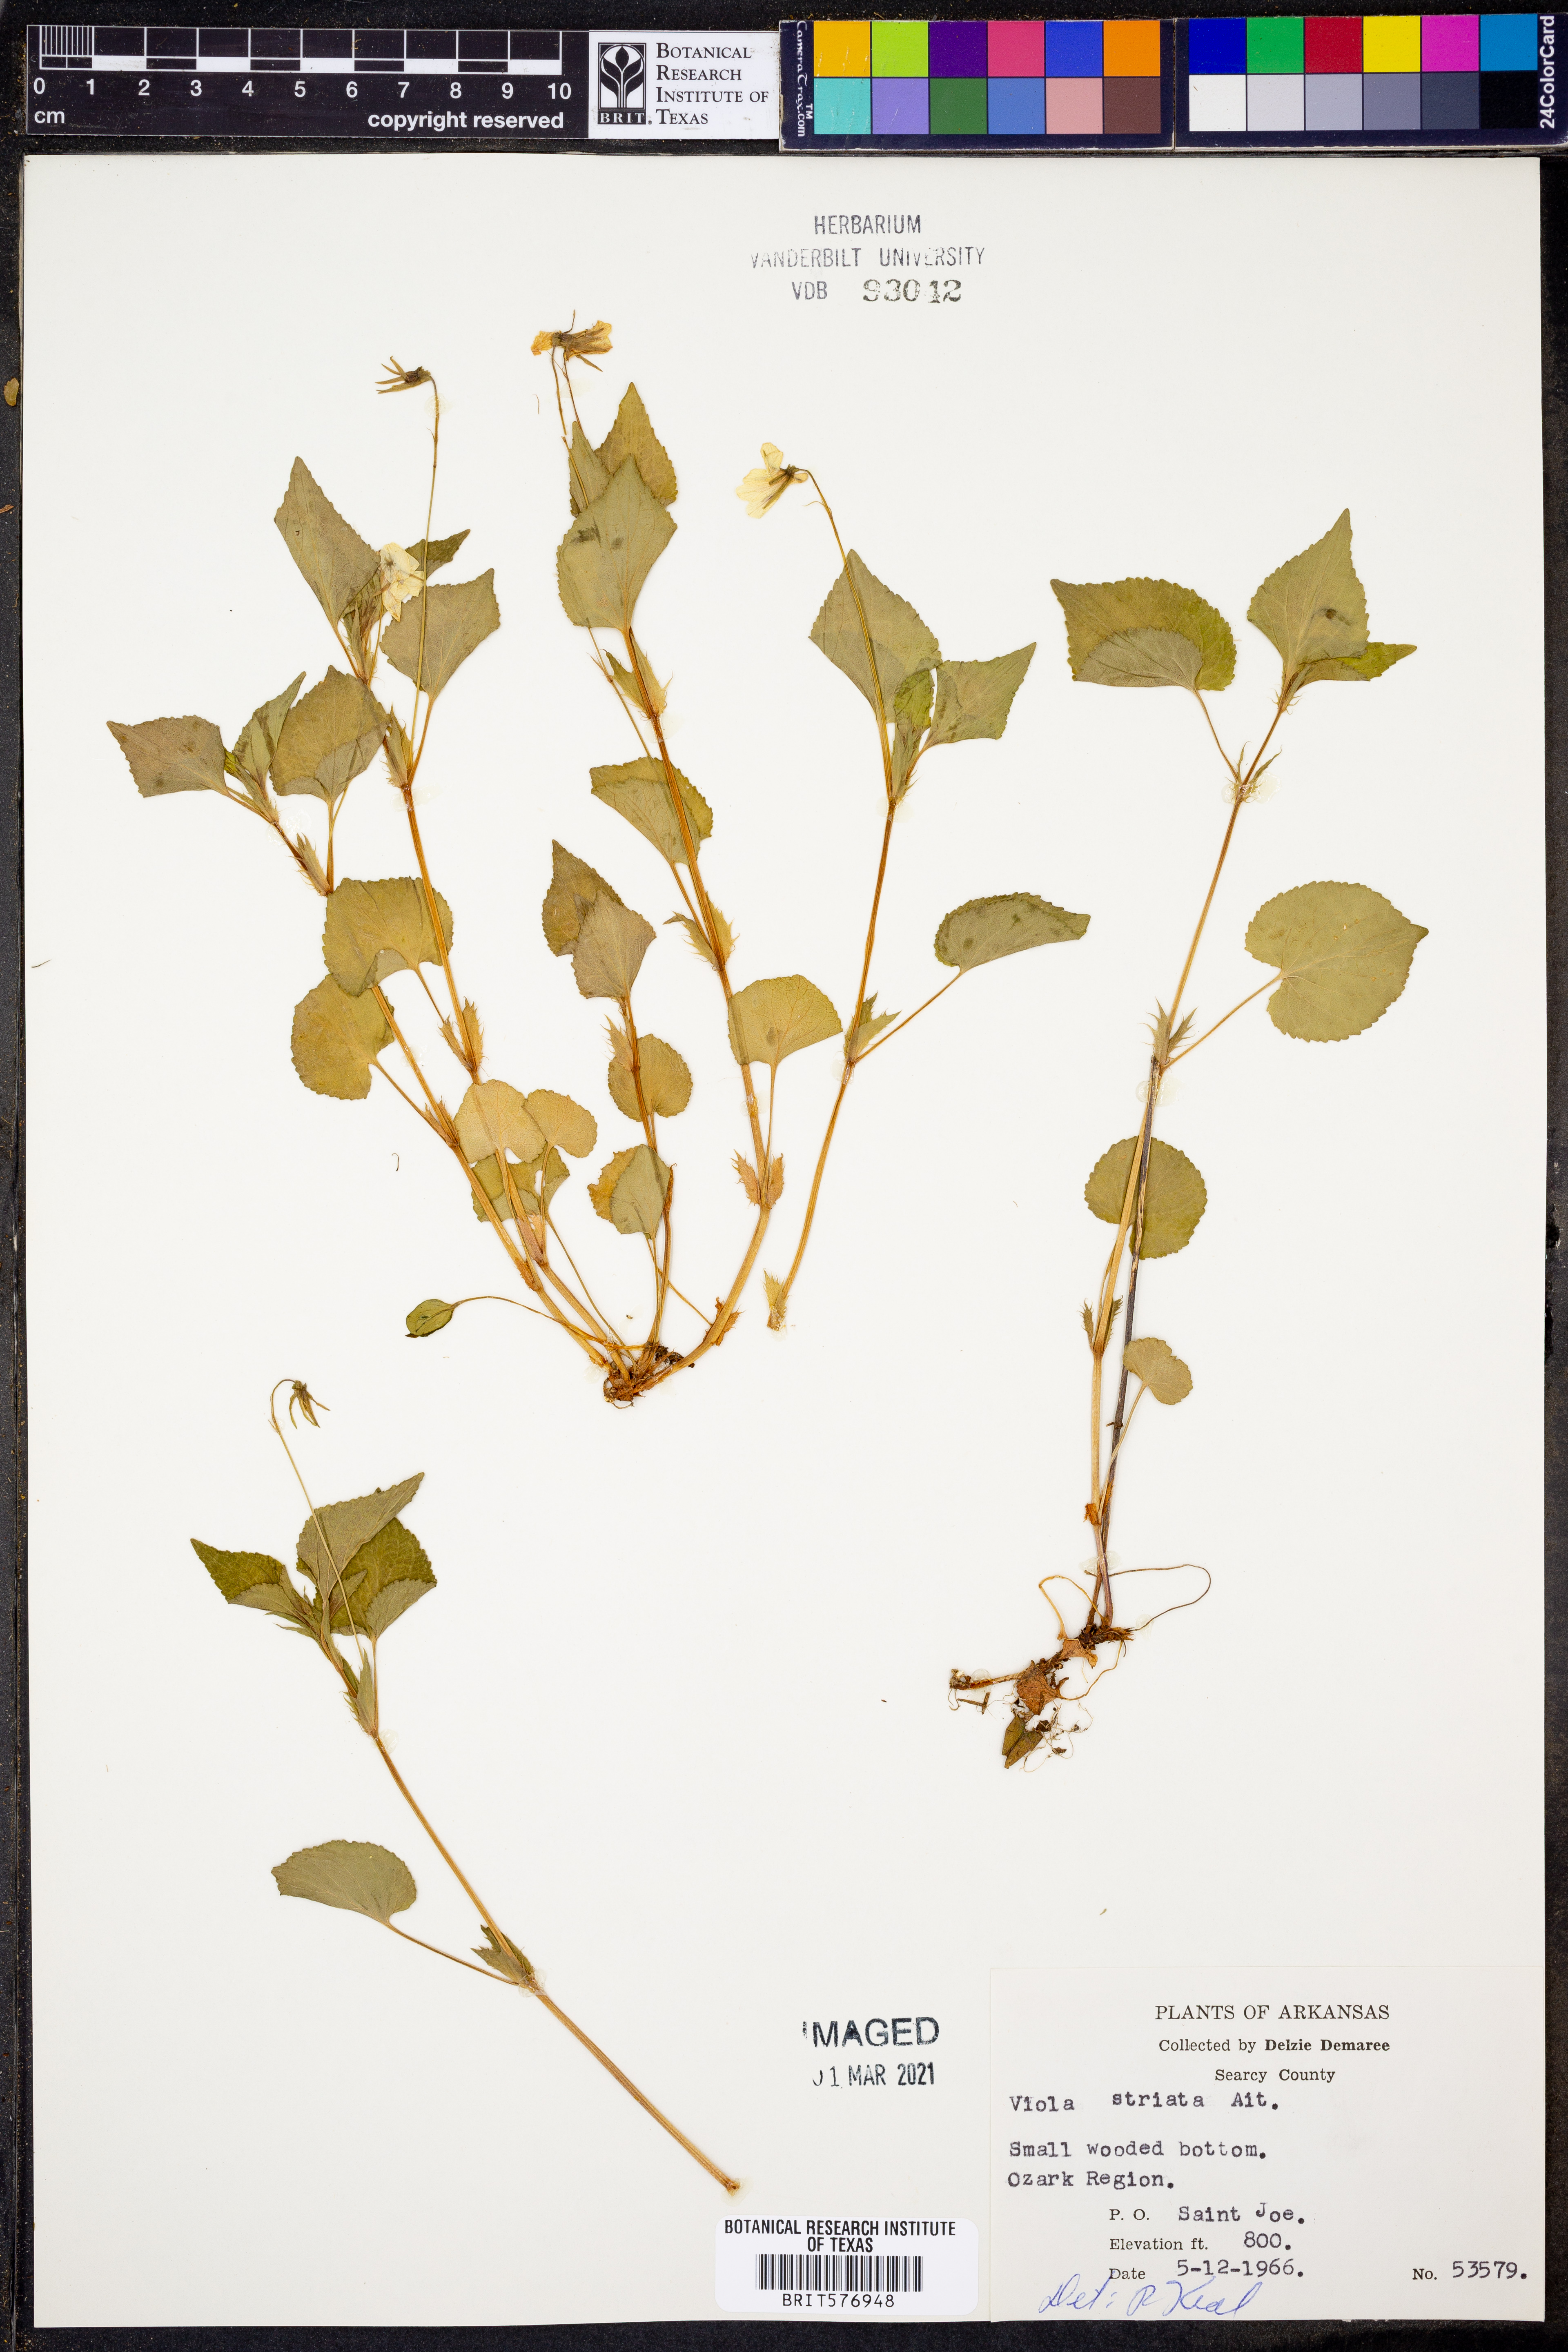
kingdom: Plantae
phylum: Tracheophyta
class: Magnoliopsida
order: Malpighiales
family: Violaceae
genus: Viola
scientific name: Viola striata
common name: Cream violet
